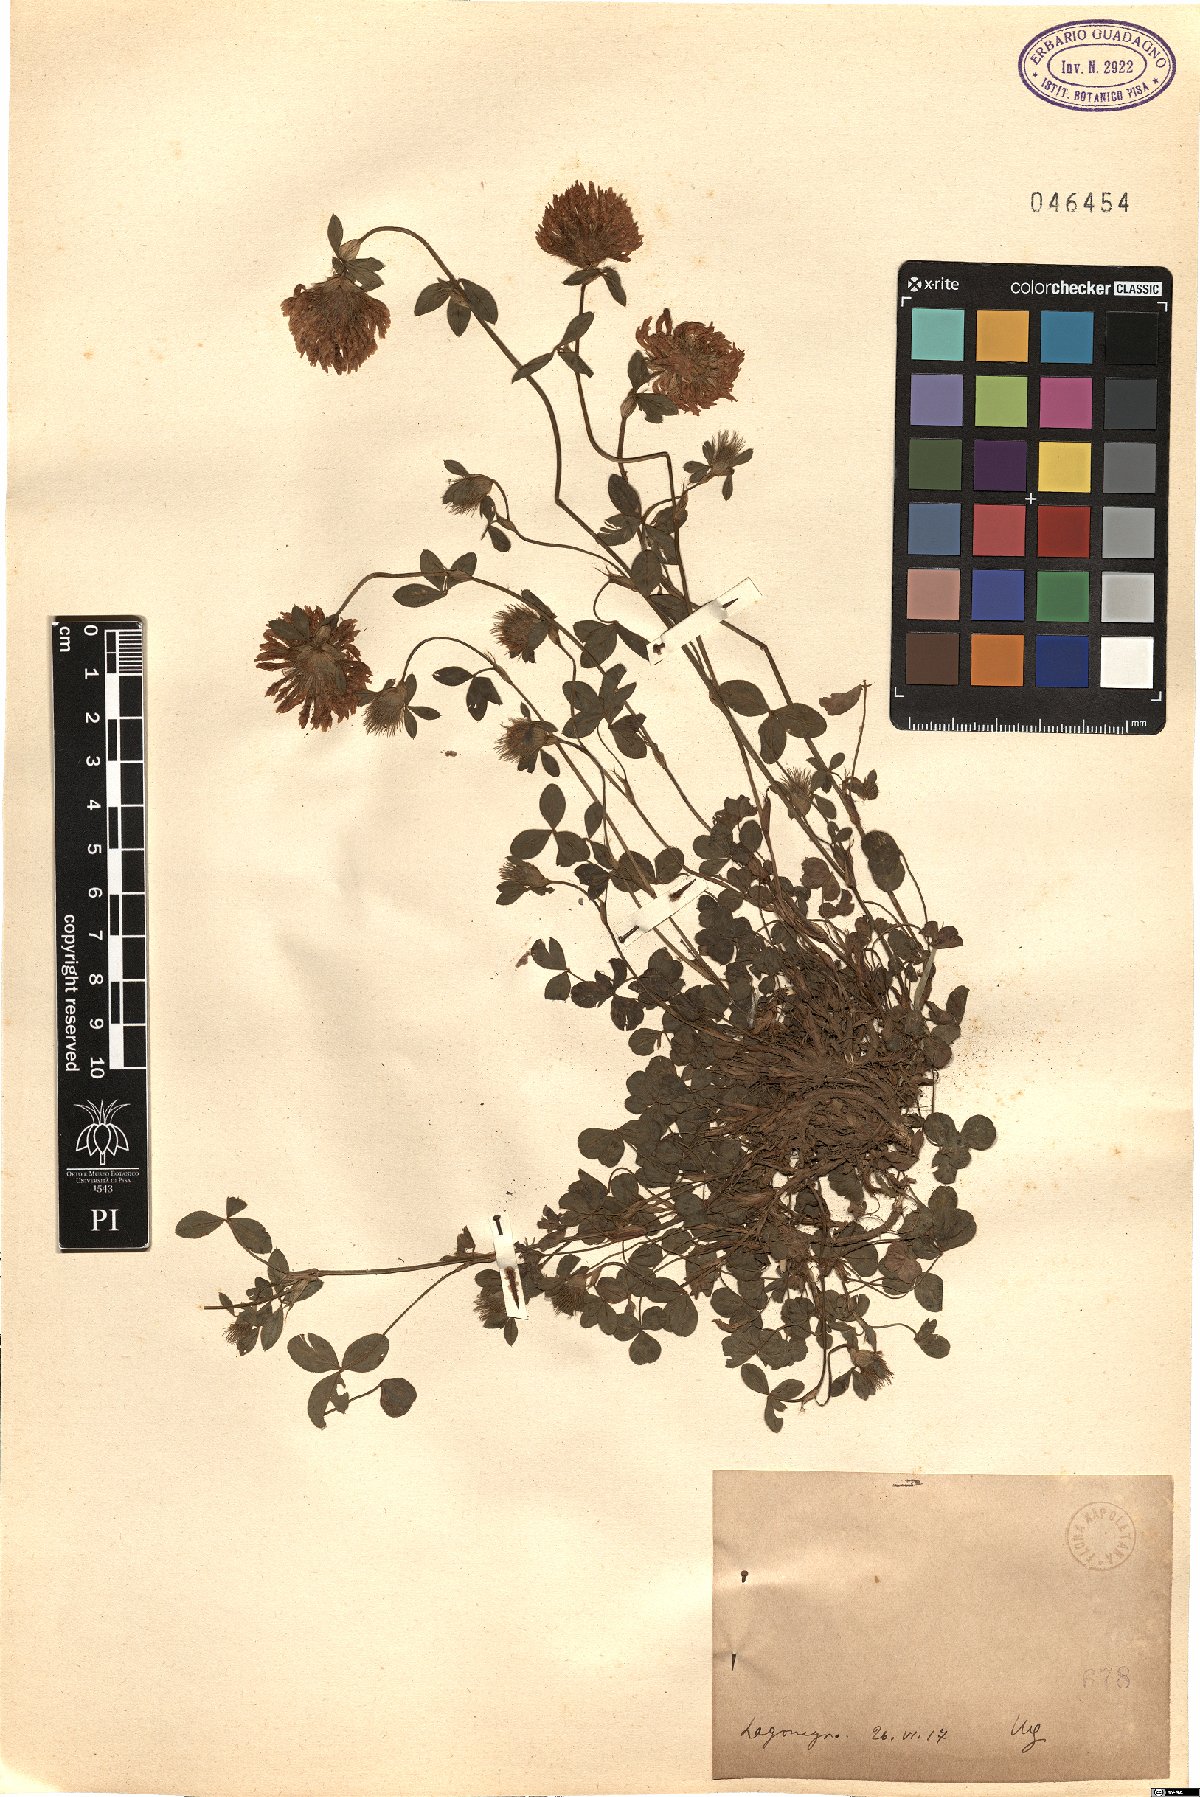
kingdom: Plantae
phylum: Tracheophyta
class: Magnoliopsida
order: Fabales
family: Fabaceae
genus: Trifolium
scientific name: Trifolium
